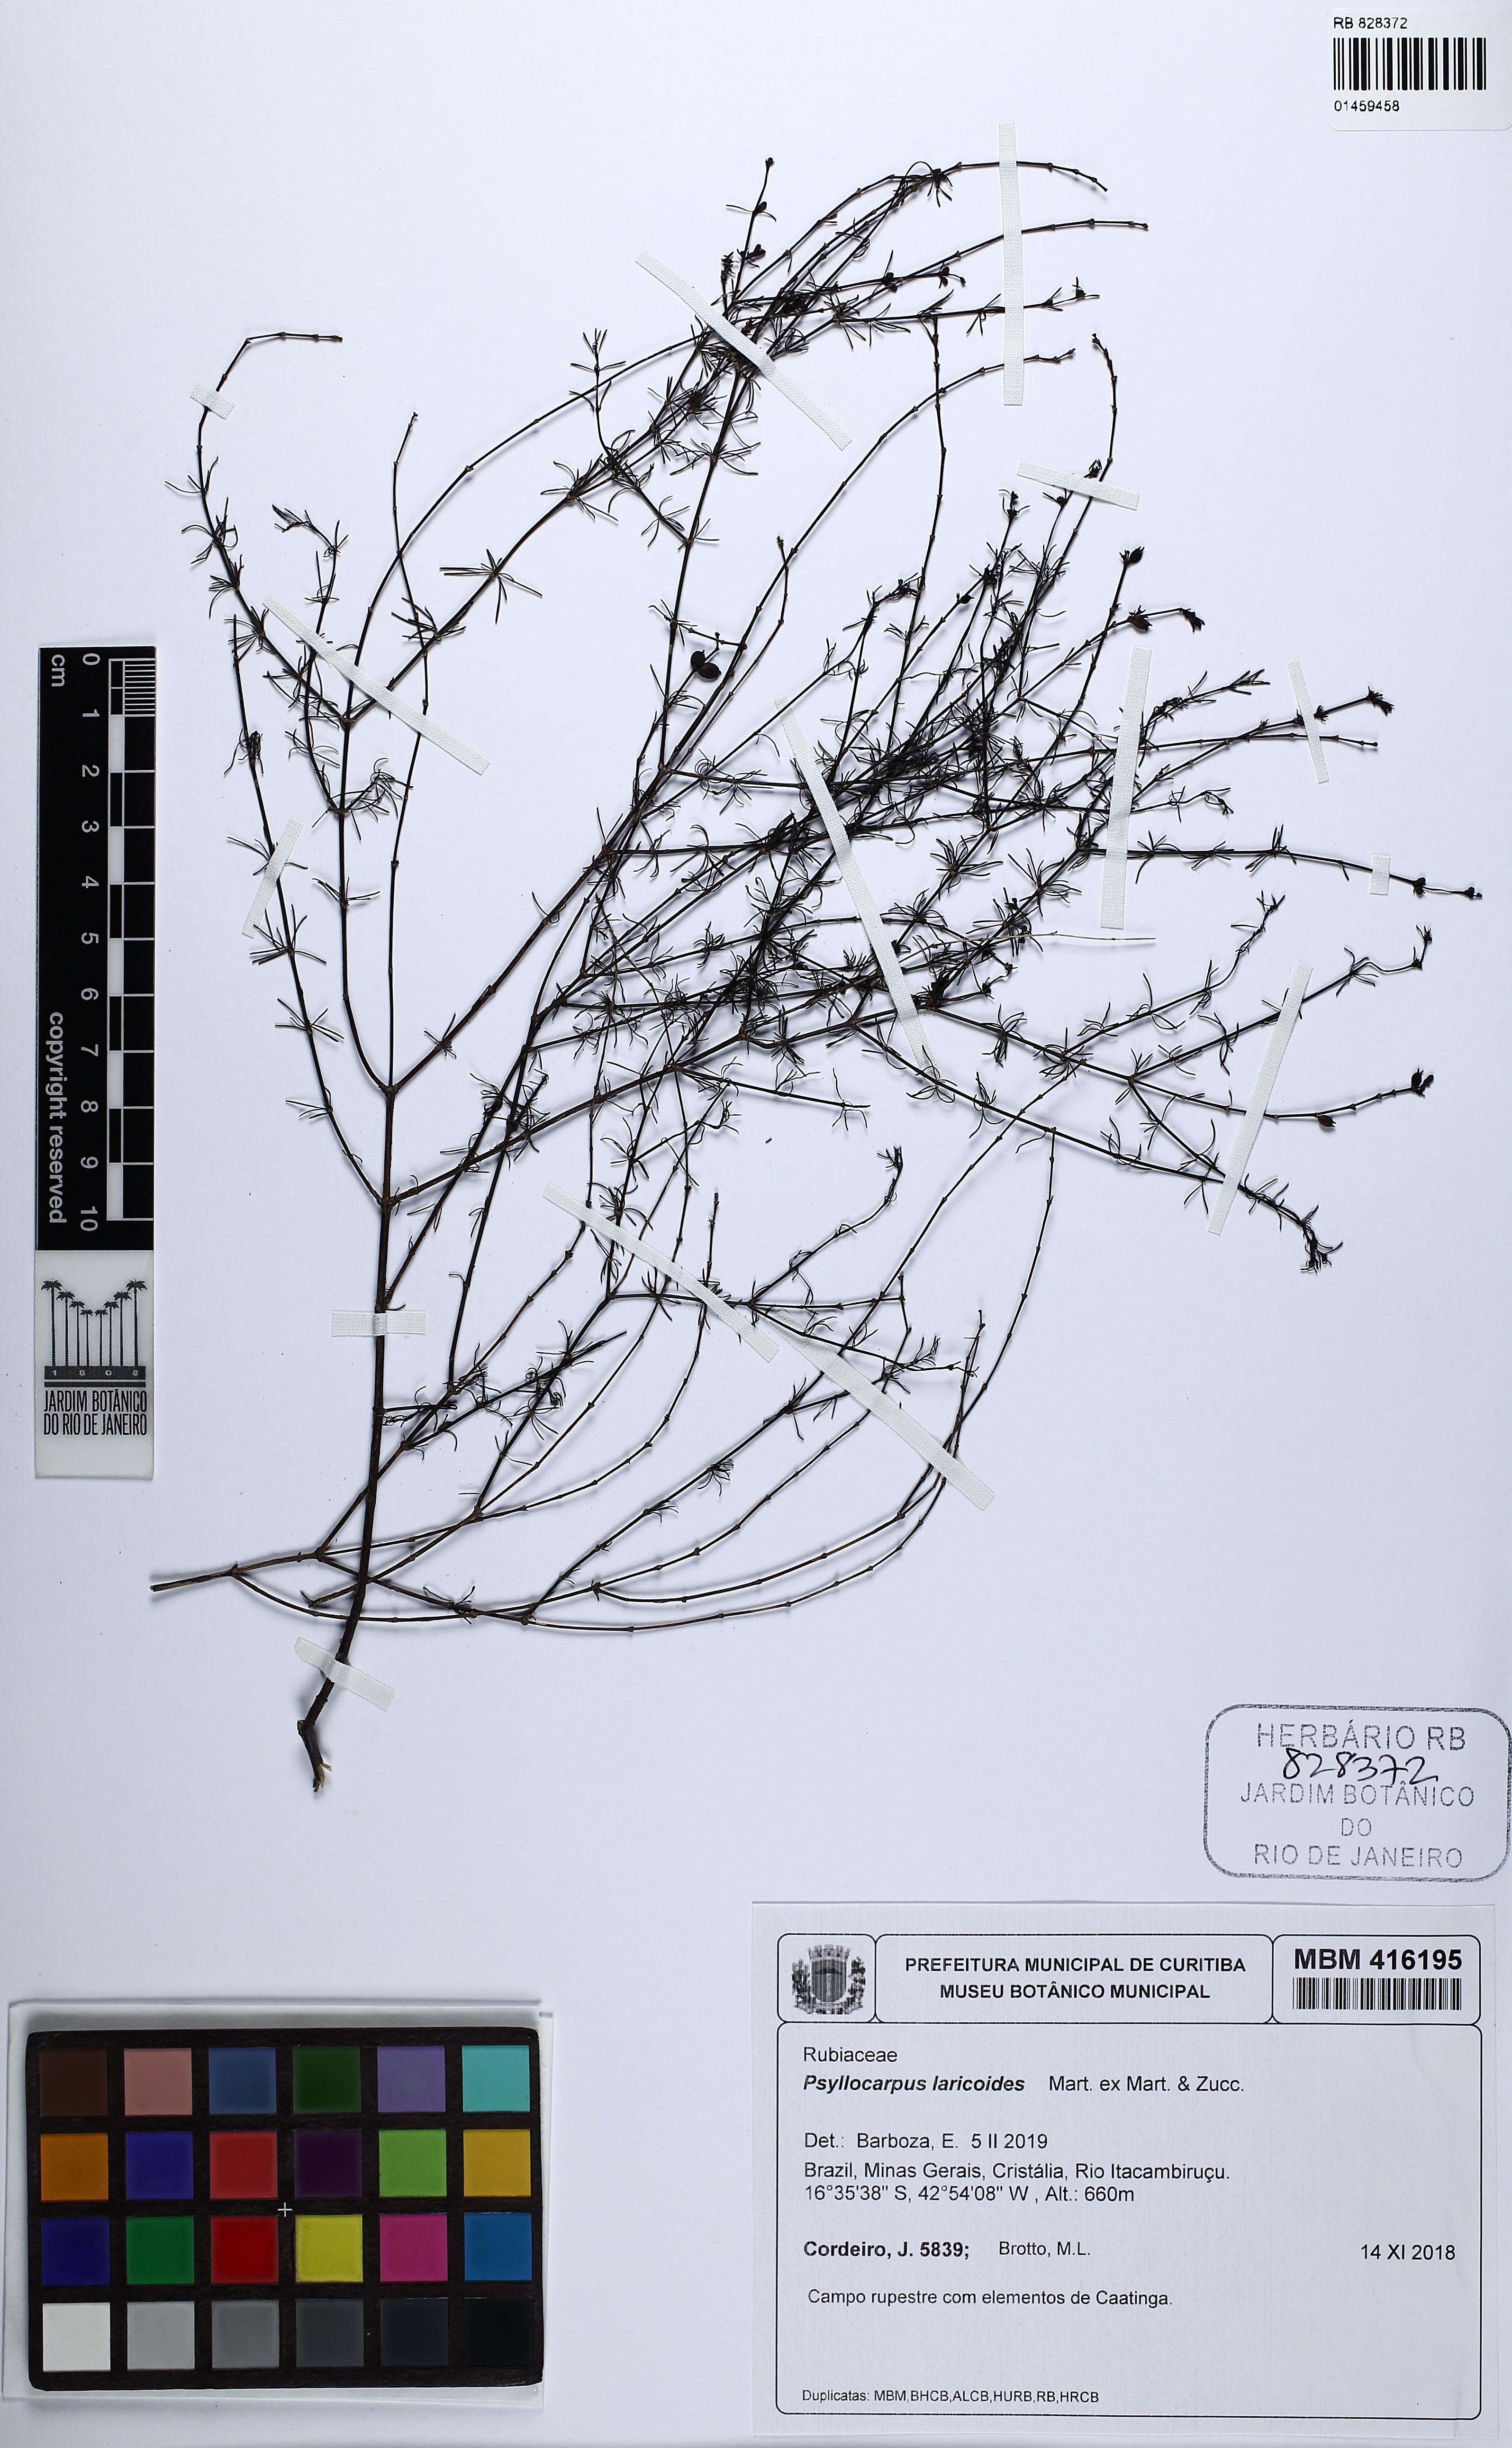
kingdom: Plantae
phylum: Tracheophyta
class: Magnoliopsida
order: Gentianales
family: Rubiaceae
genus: Psyllocarpus
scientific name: Psyllocarpus laricoides
